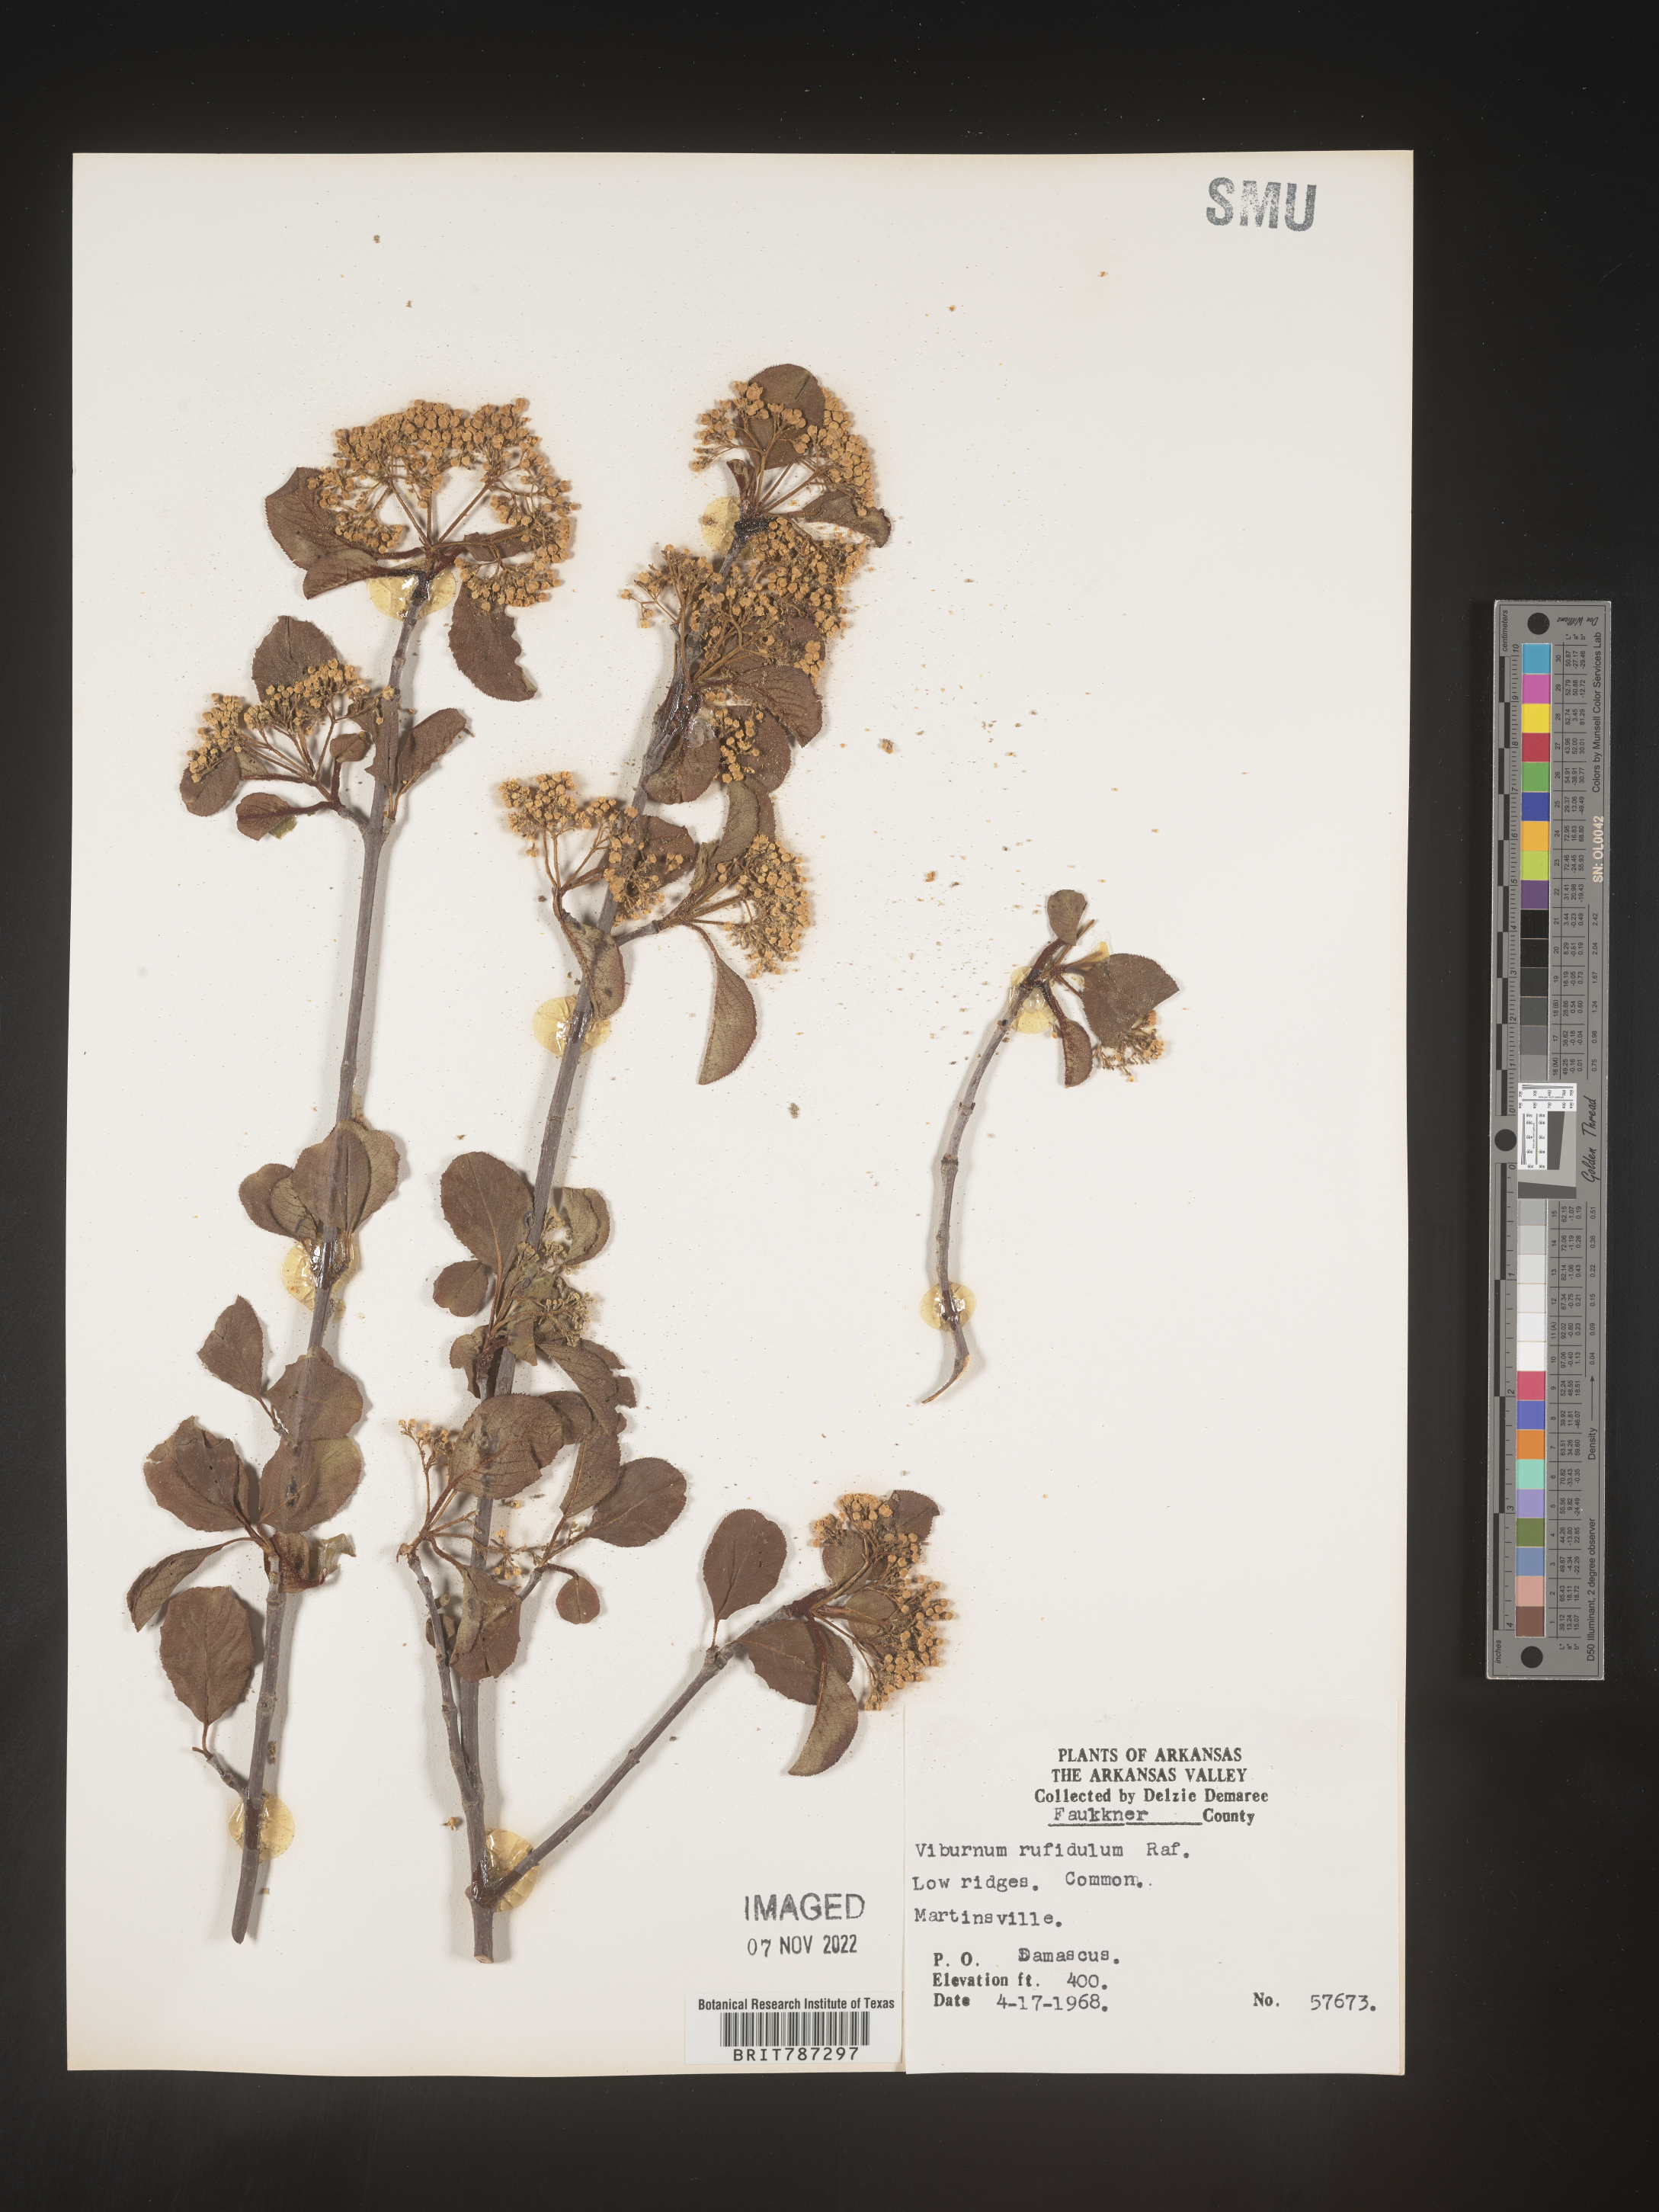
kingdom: Plantae
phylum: Tracheophyta
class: Magnoliopsida
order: Dipsacales
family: Viburnaceae
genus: Viburnum
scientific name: Viburnum rufidulum
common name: Blue haw
